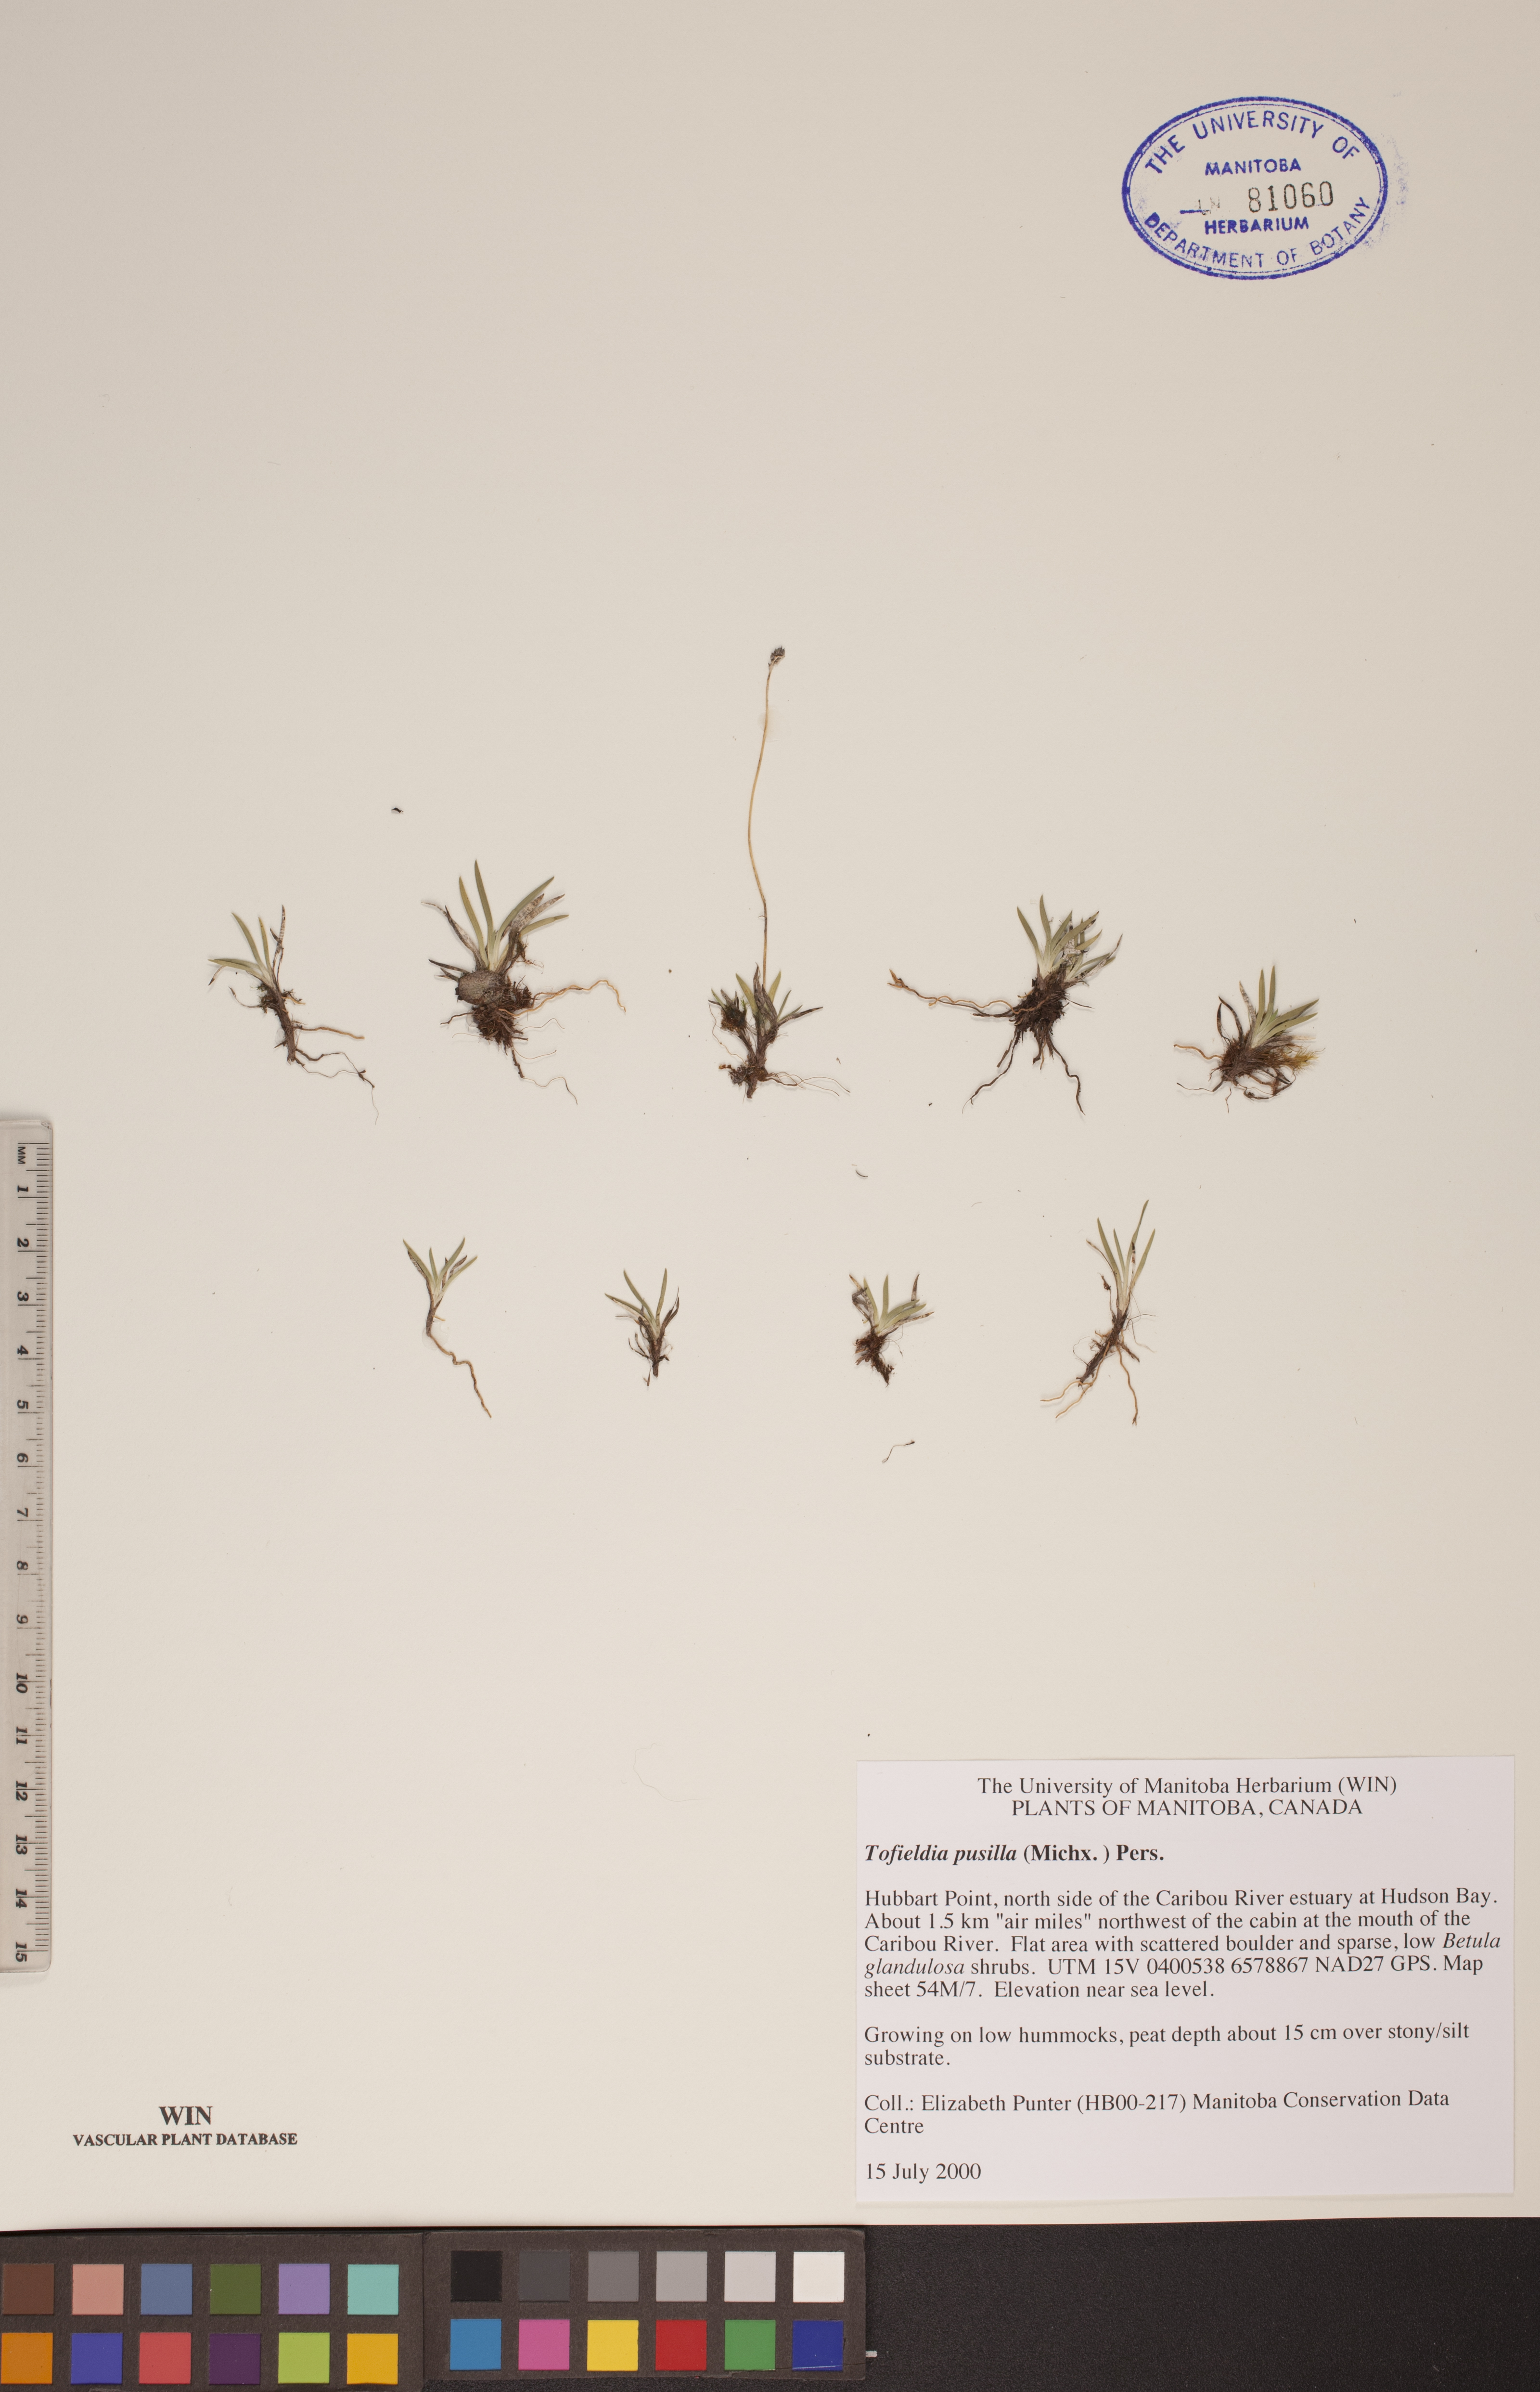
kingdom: Plantae
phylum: Tracheophyta
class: Liliopsida
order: Alismatales
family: Tofieldiaceae
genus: Tofieldia
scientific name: Tofieldia pusilla
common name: Scottish false asphodel
